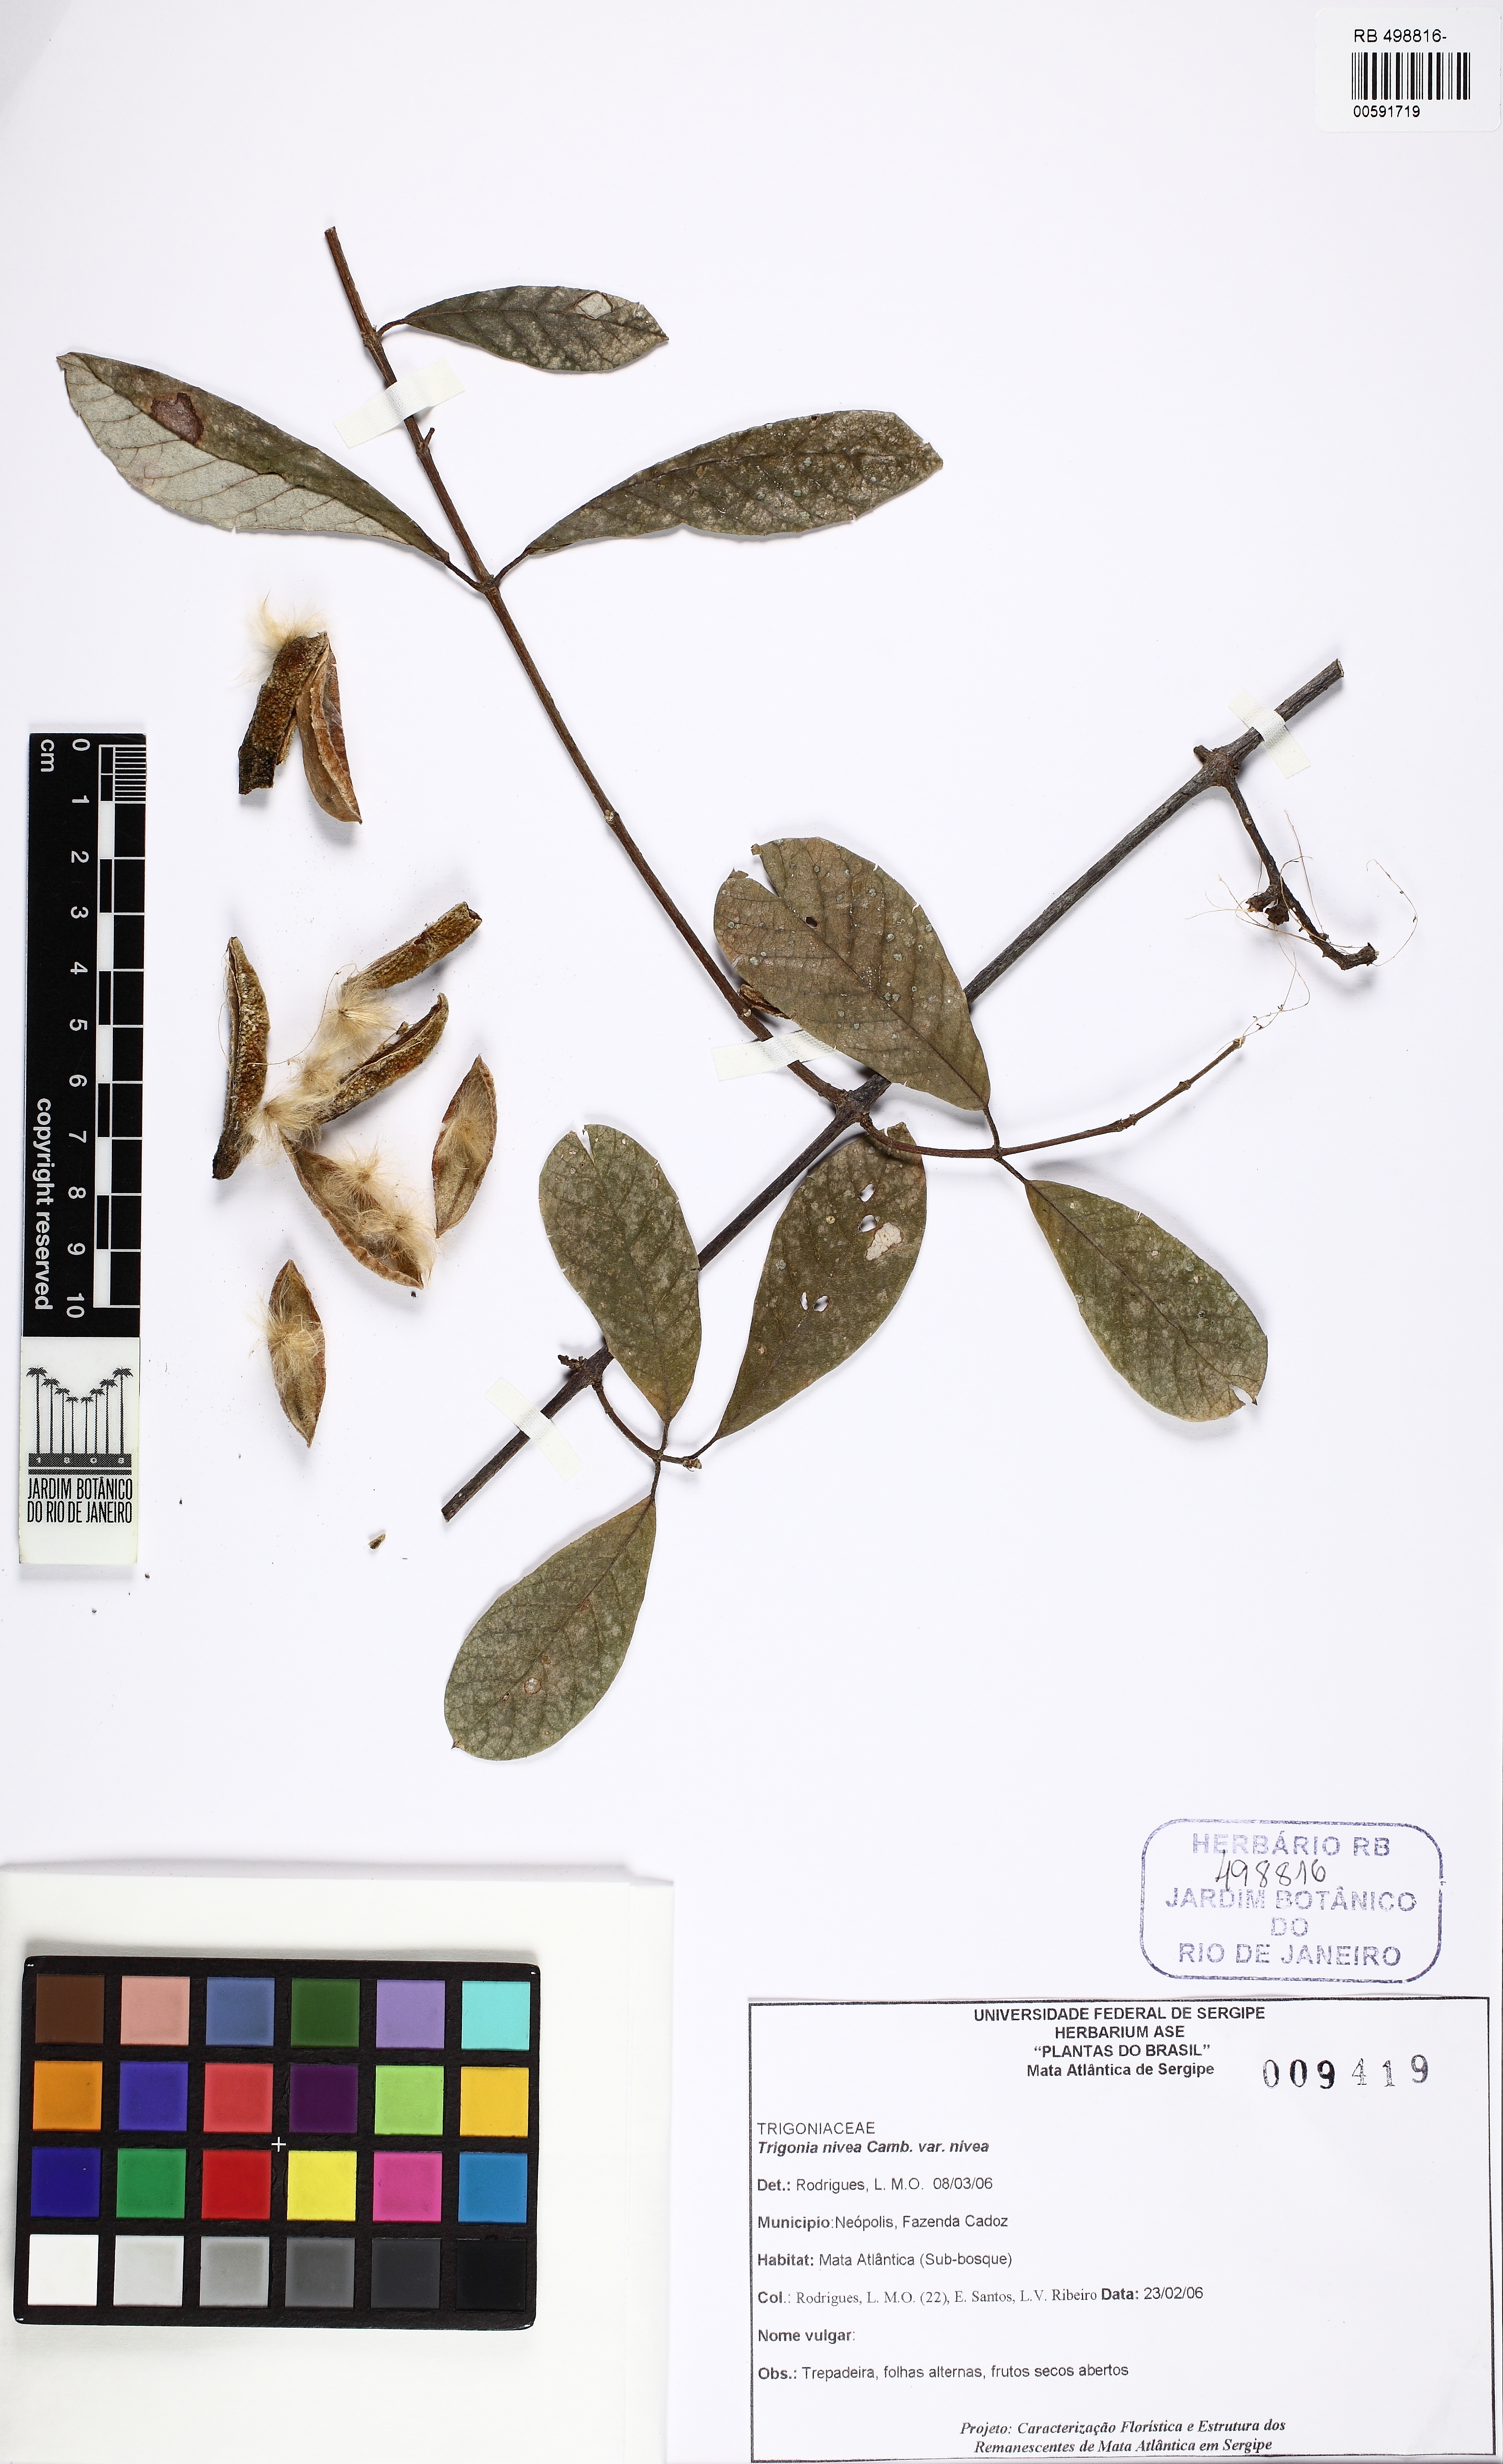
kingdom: Plantae
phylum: Tracheophyta
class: Magnoliopsida
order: Malpighiales
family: Trigoniaceae
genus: Trigonia
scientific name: Trigonia nivea
